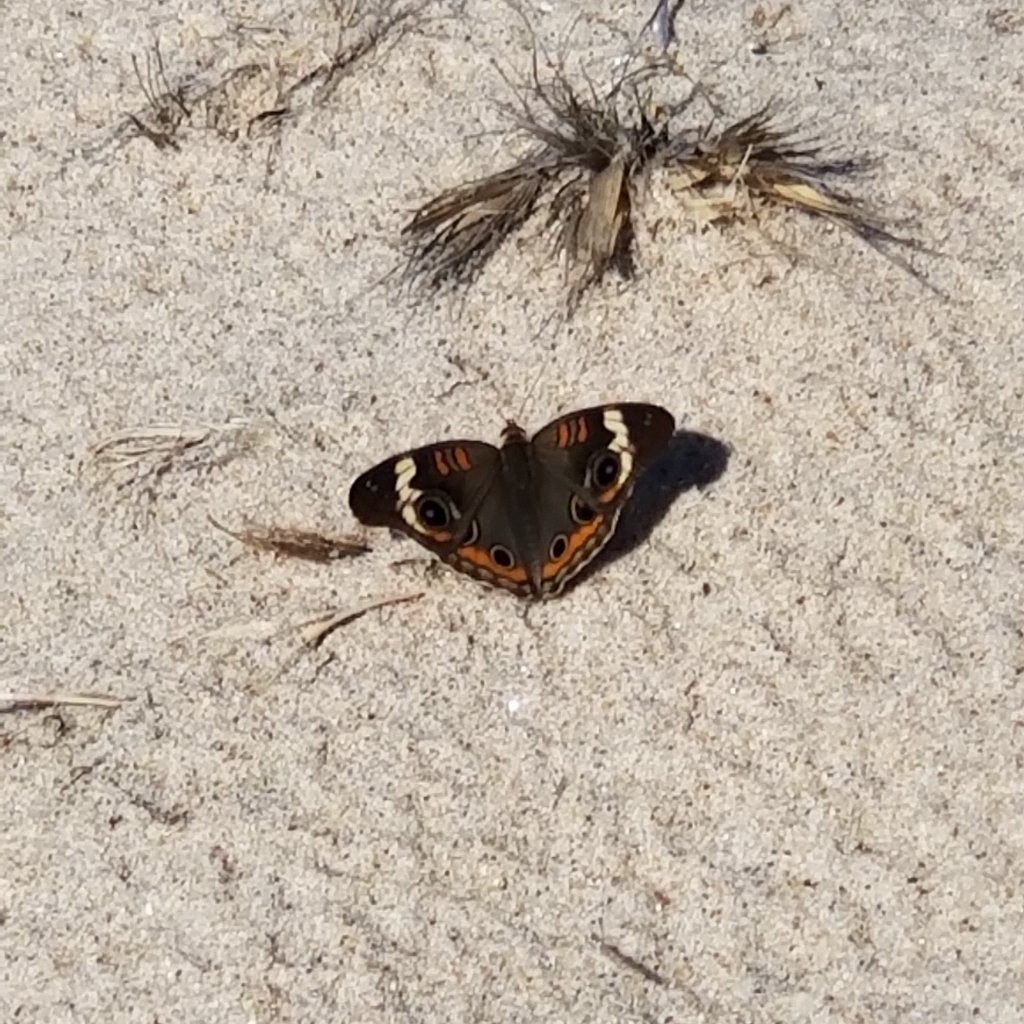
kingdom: Animalia
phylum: Arthropoda
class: Insecta
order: Lepidoptera
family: Nymphalidae
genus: Junonia
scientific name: Junonia coenia
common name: Common Buckeye
